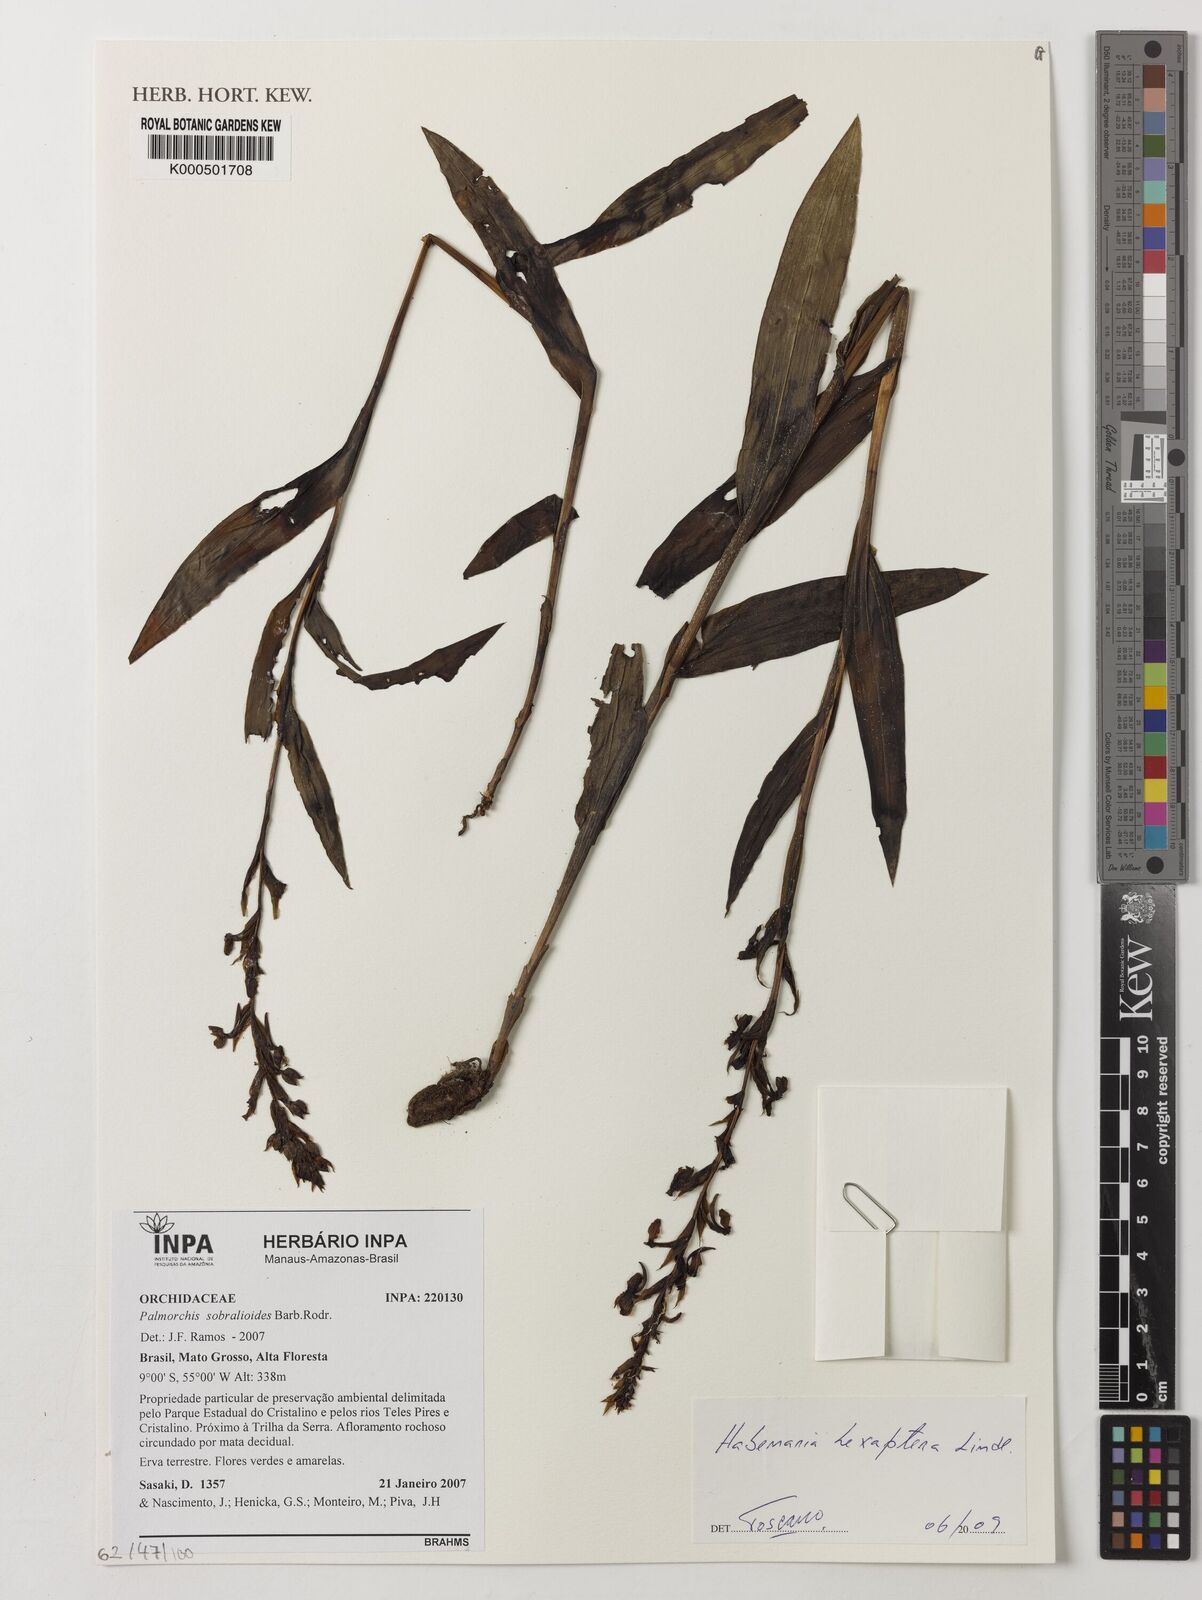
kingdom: Plantae
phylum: Tracheophyta
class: Liliopsida
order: Asparagales
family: Orchidaceae
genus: Habenaria
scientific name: Habenaria hexaptera
